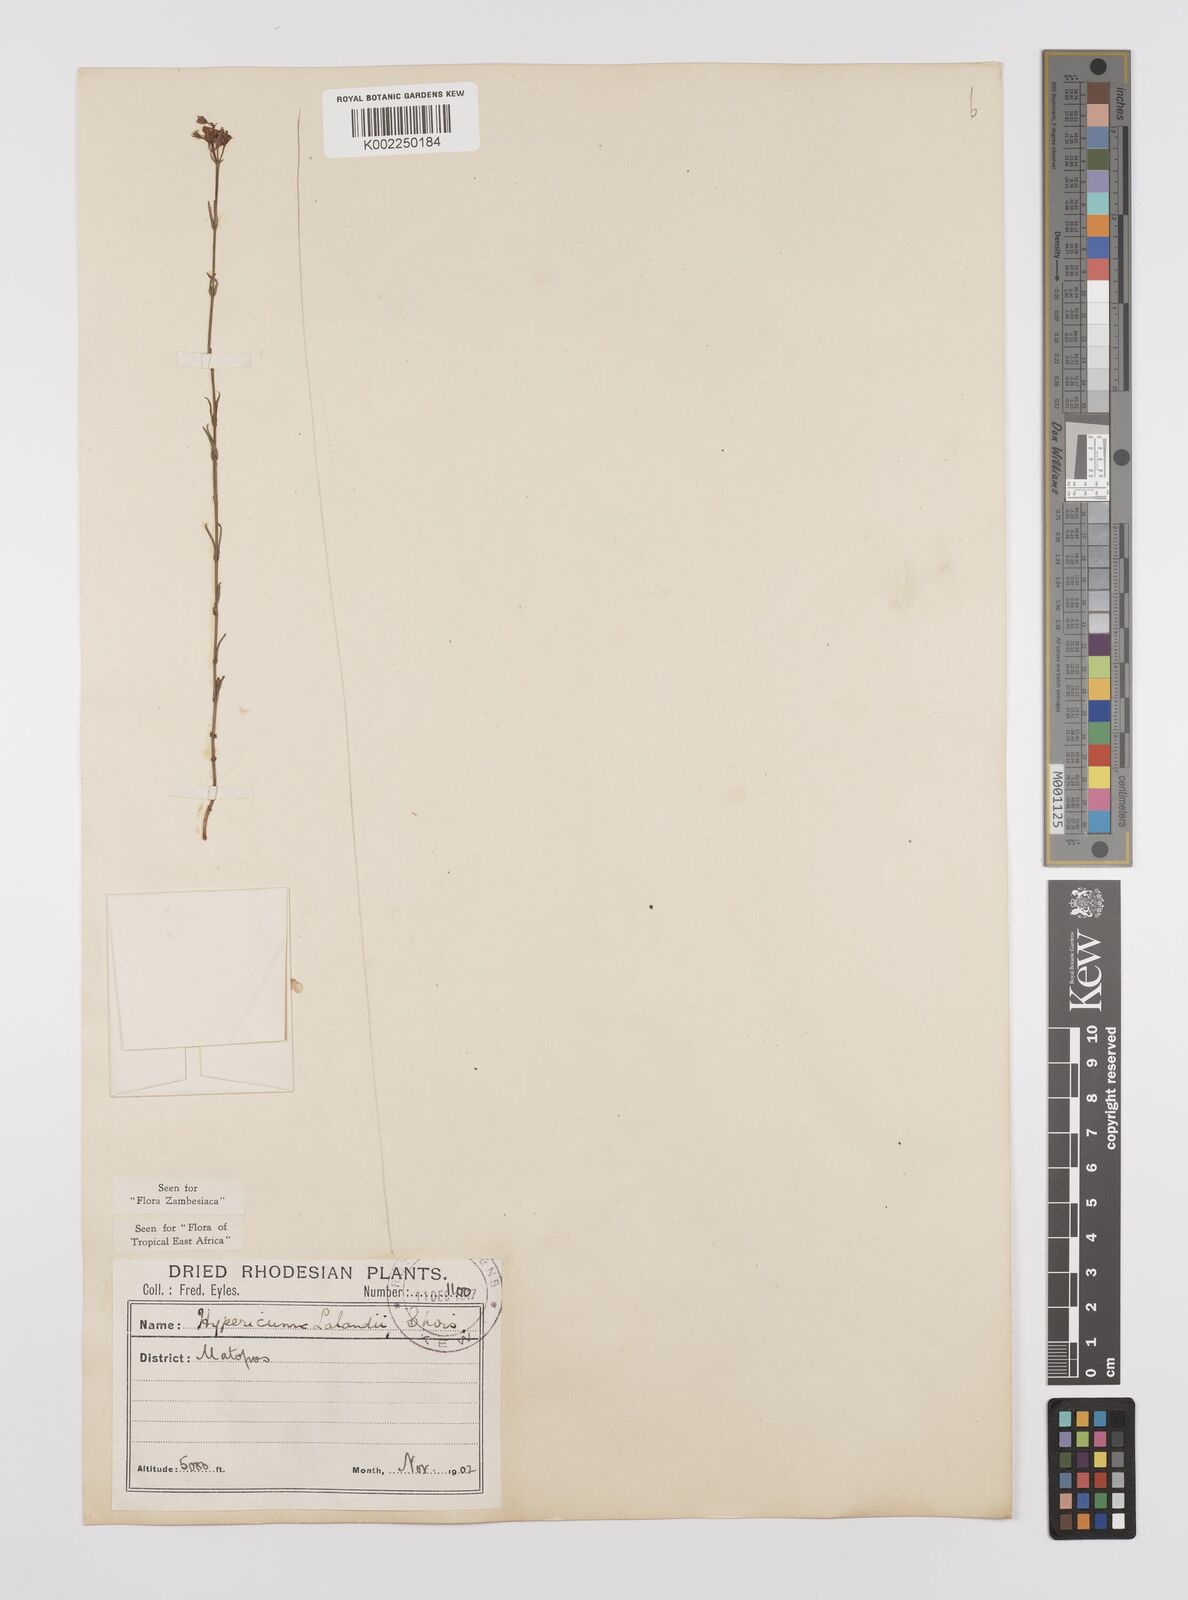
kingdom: Plantae
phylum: Tracheophyta
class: Magnoliopsida
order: Malpighiales
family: Hypericaceae
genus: Hypericum
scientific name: Hypericum lalandii
